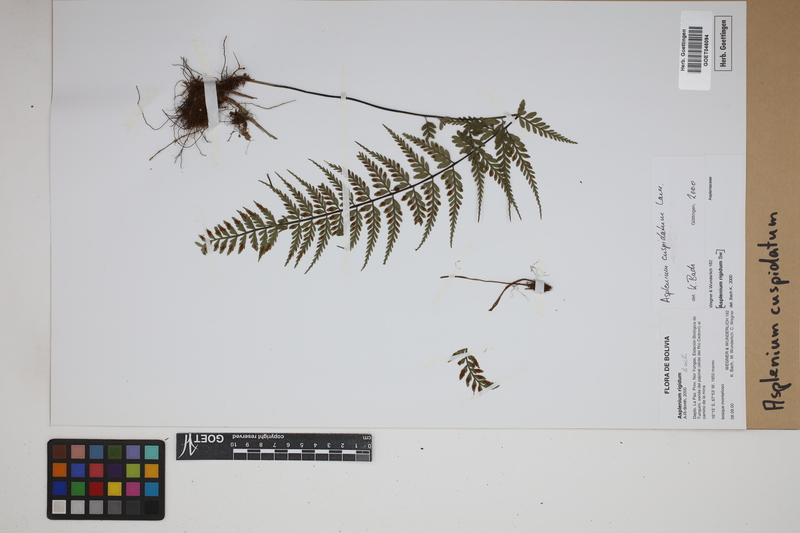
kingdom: Plantae
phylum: Tracheophyta
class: Polypodiopsida
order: Polypodiales
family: Aspleniaceae
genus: Asplenium
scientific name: Asplenium cuspidatum
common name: Eared spleenwort
